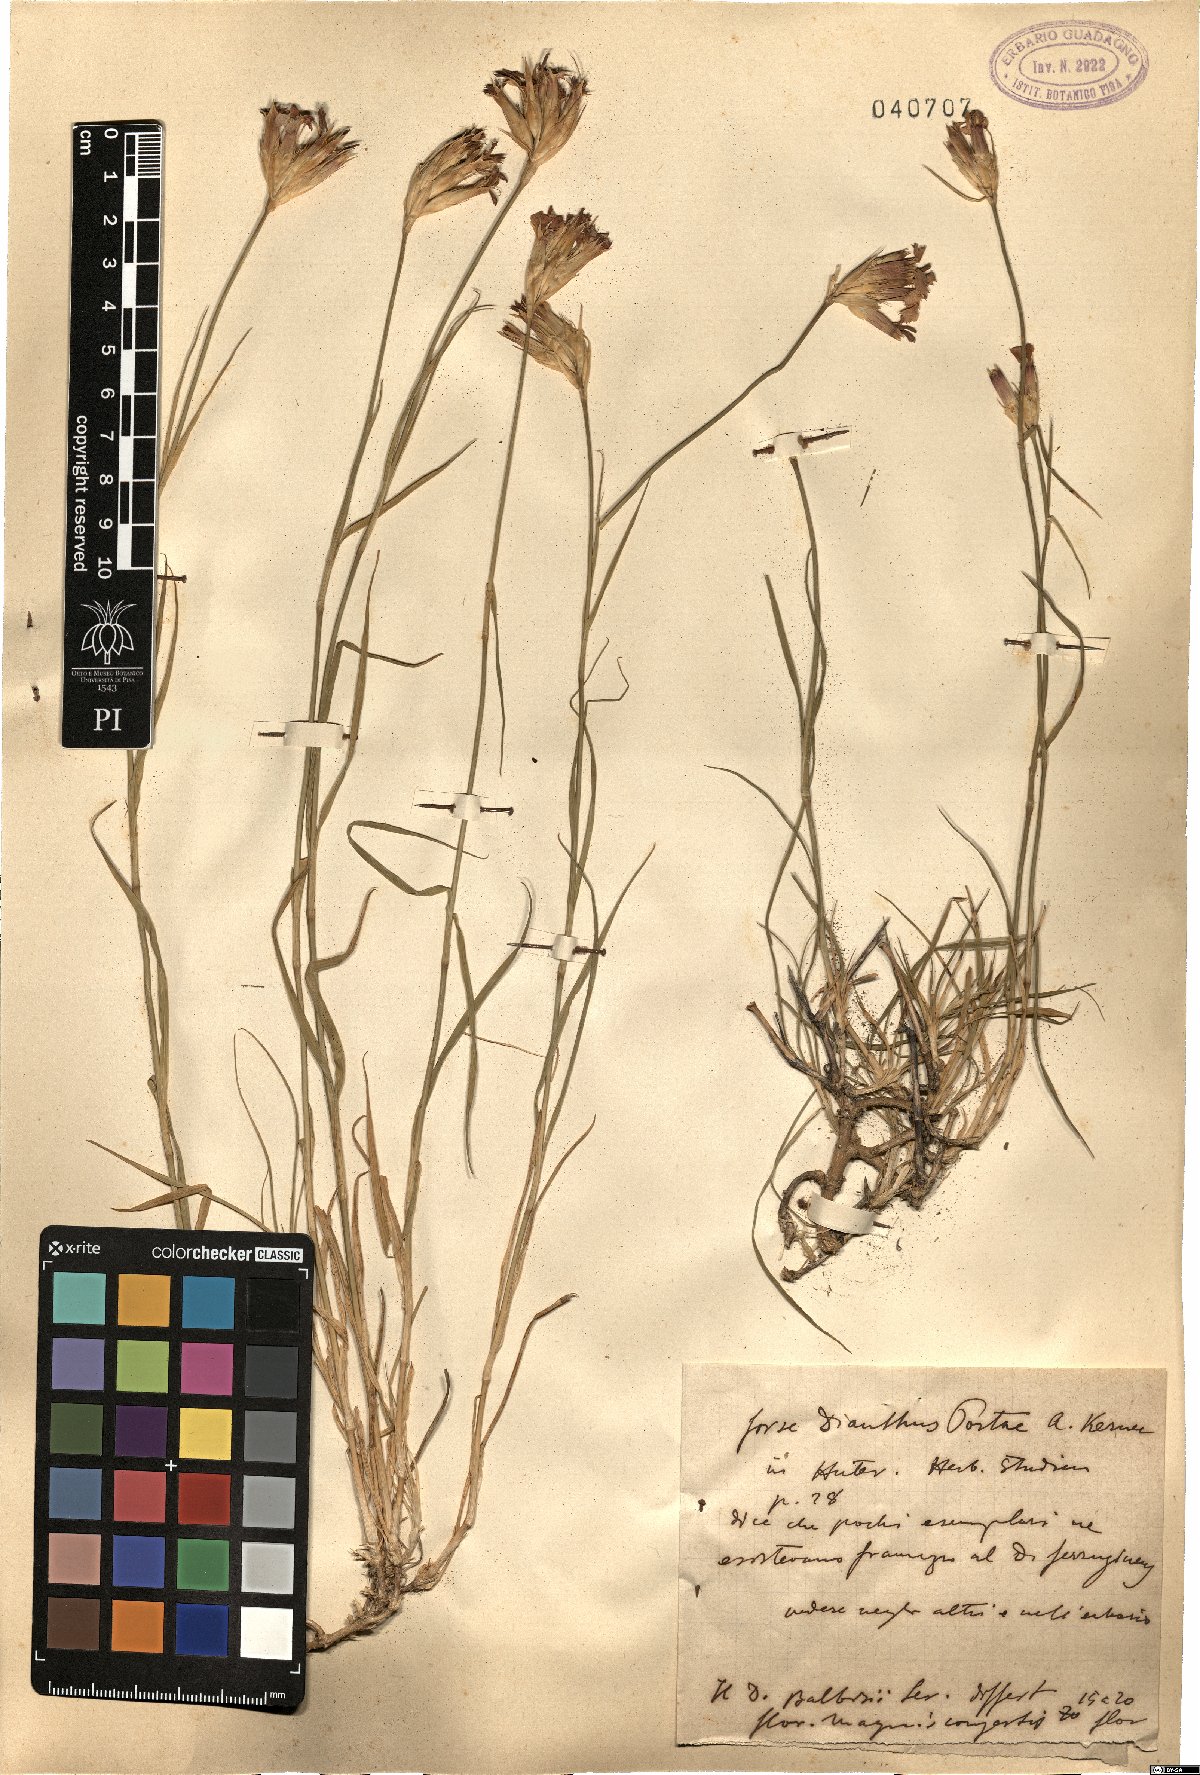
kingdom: Plantae
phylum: Tracheophyta
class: Magnoliopsida
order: Caryophyllales
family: Caryophyllaceae
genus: Dianthus
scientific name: Dianthus portae
